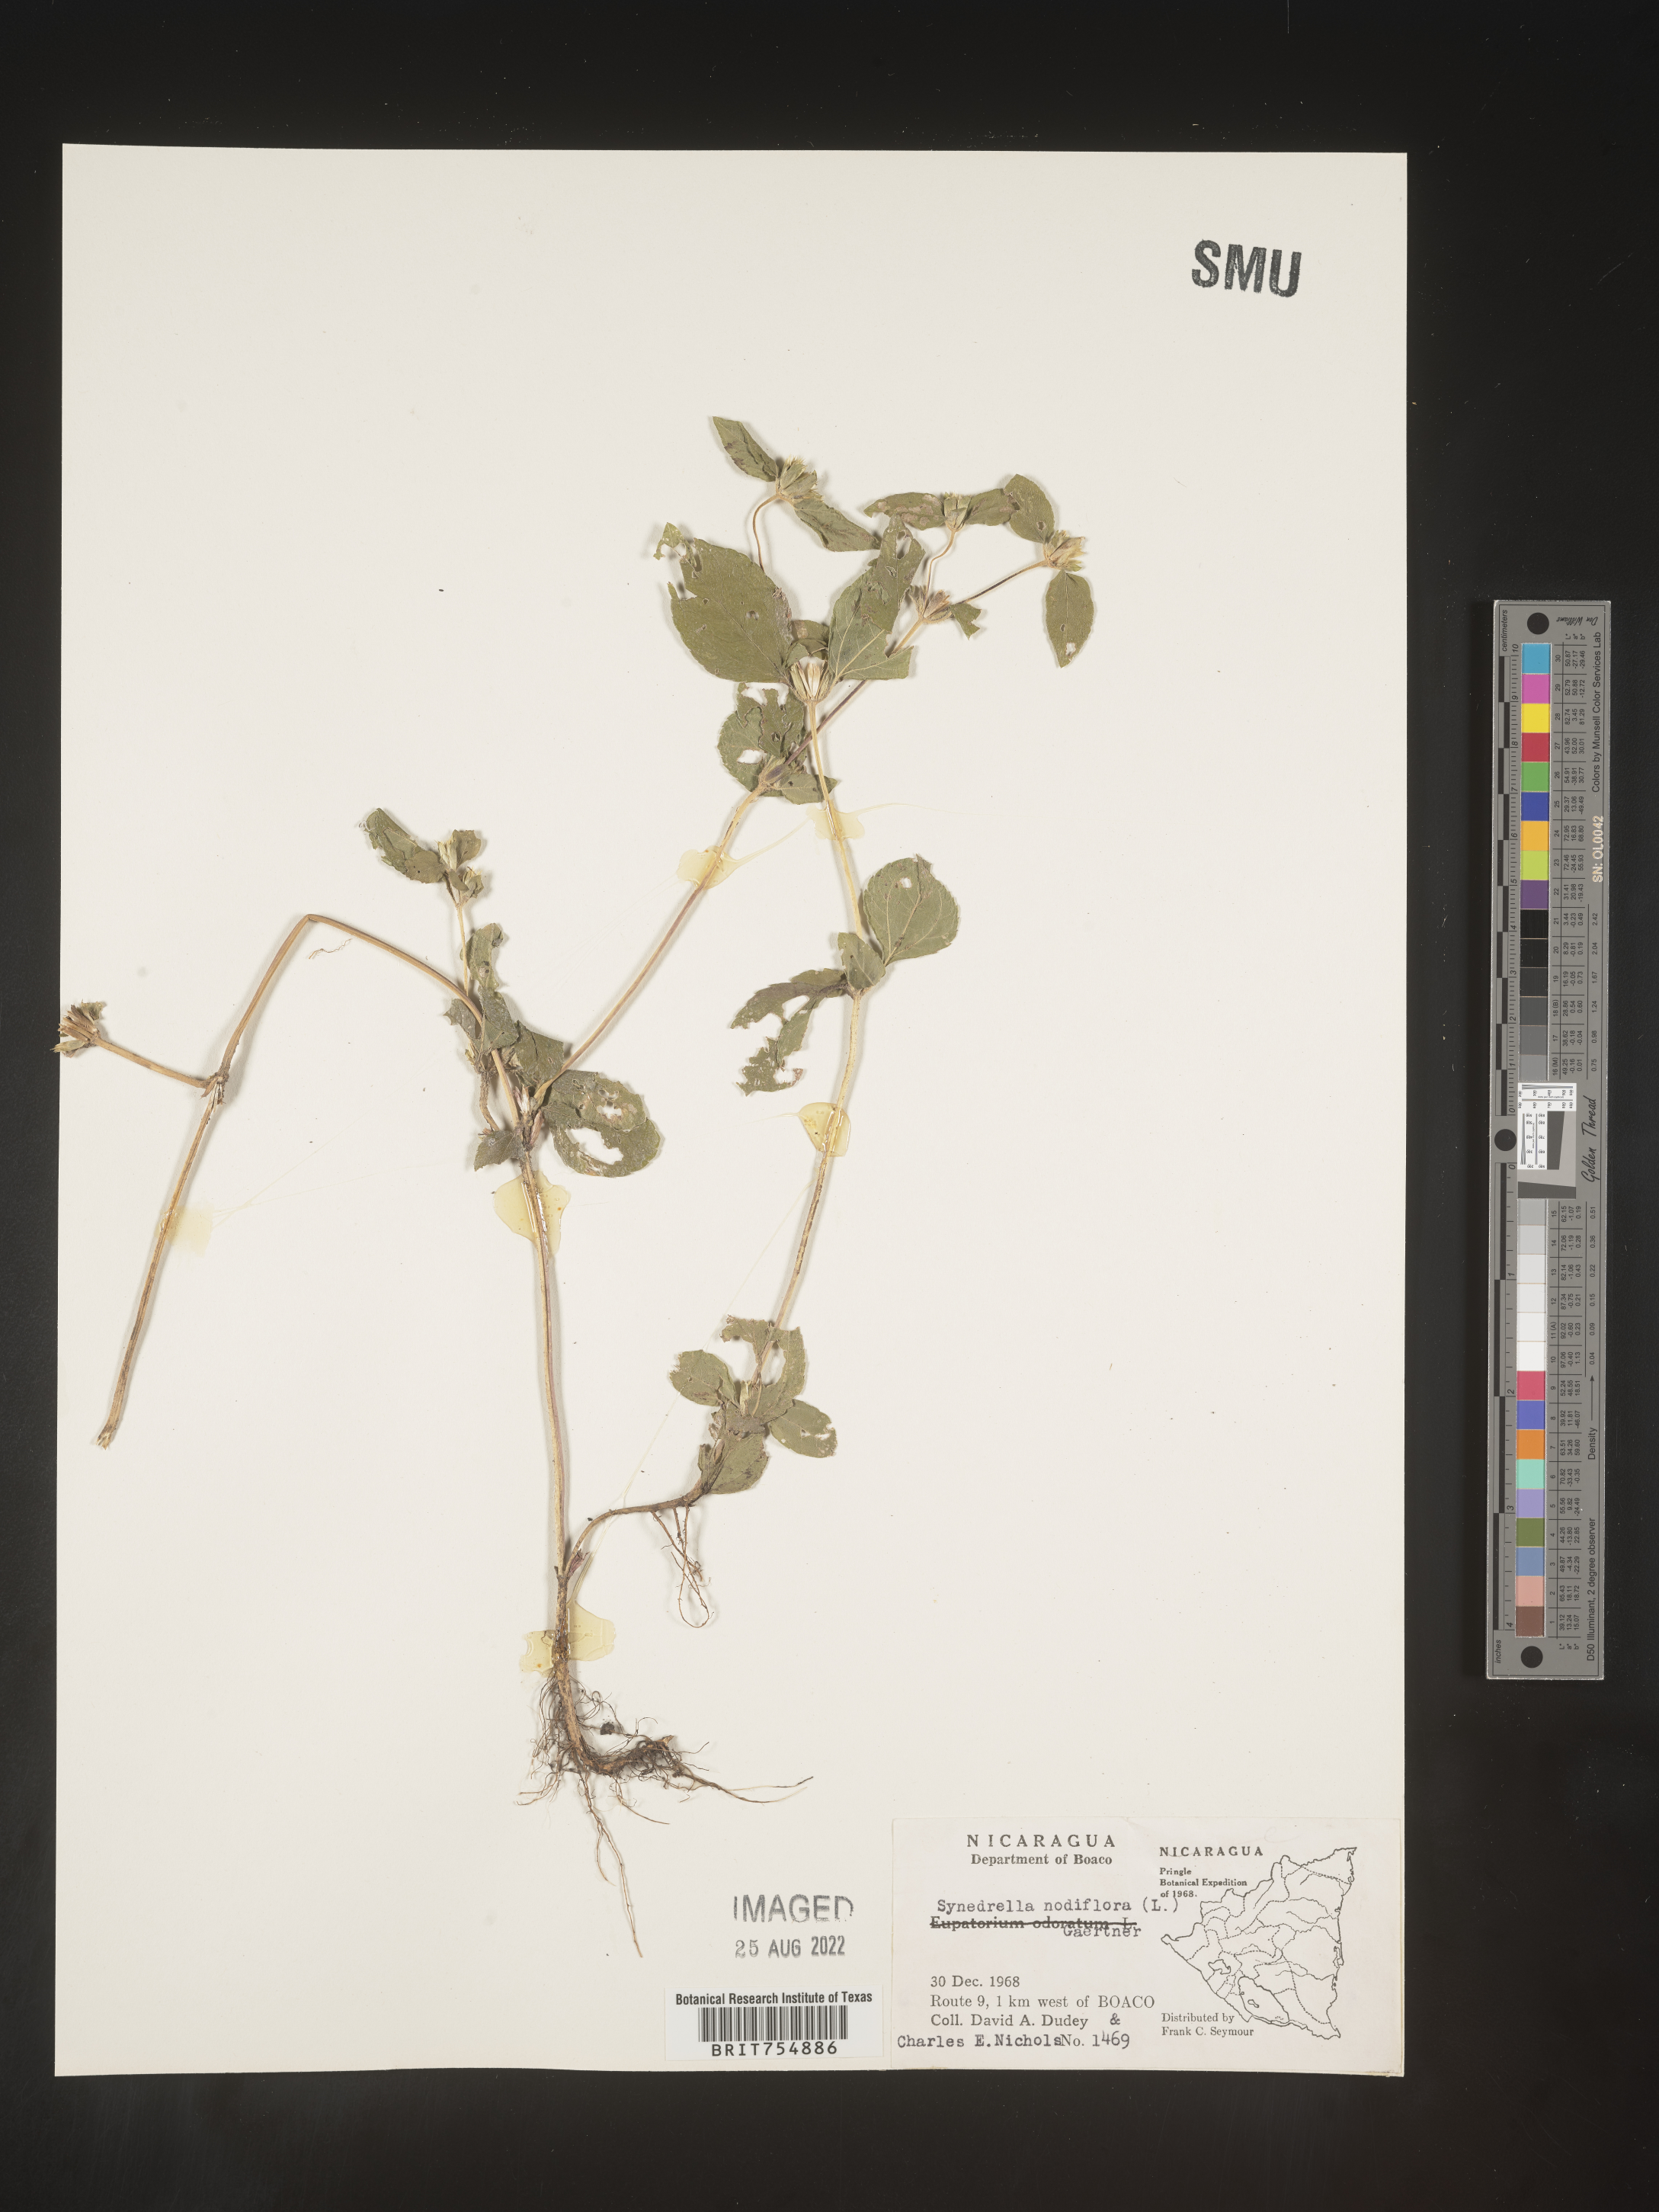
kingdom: Plantae
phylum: Tracheophyta
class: Magnoliopsida
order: Asterales
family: Asteraceae
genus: Synedrella
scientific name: Synedrella
